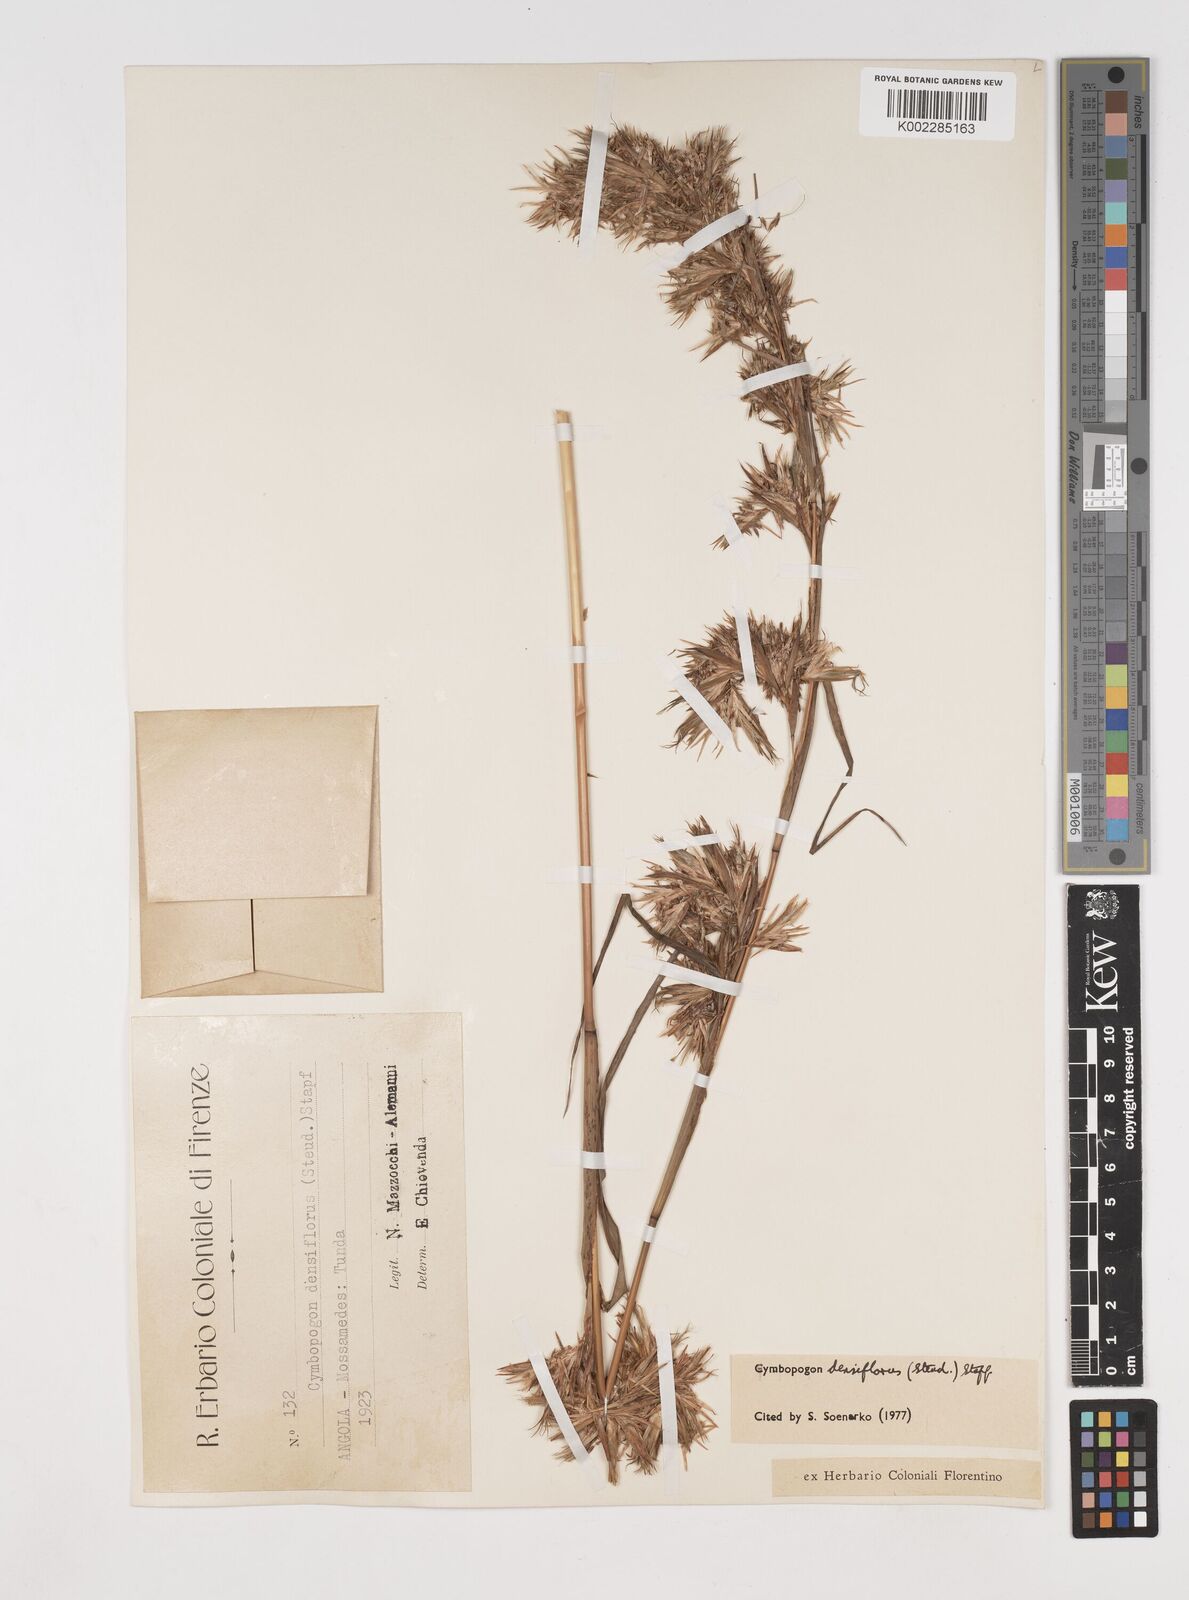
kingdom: Plantae
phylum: Tracheophyta
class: Liliopsida
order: Poales
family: Poaceae
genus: Cymbopogon
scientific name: Cymbopogon densiflorus
